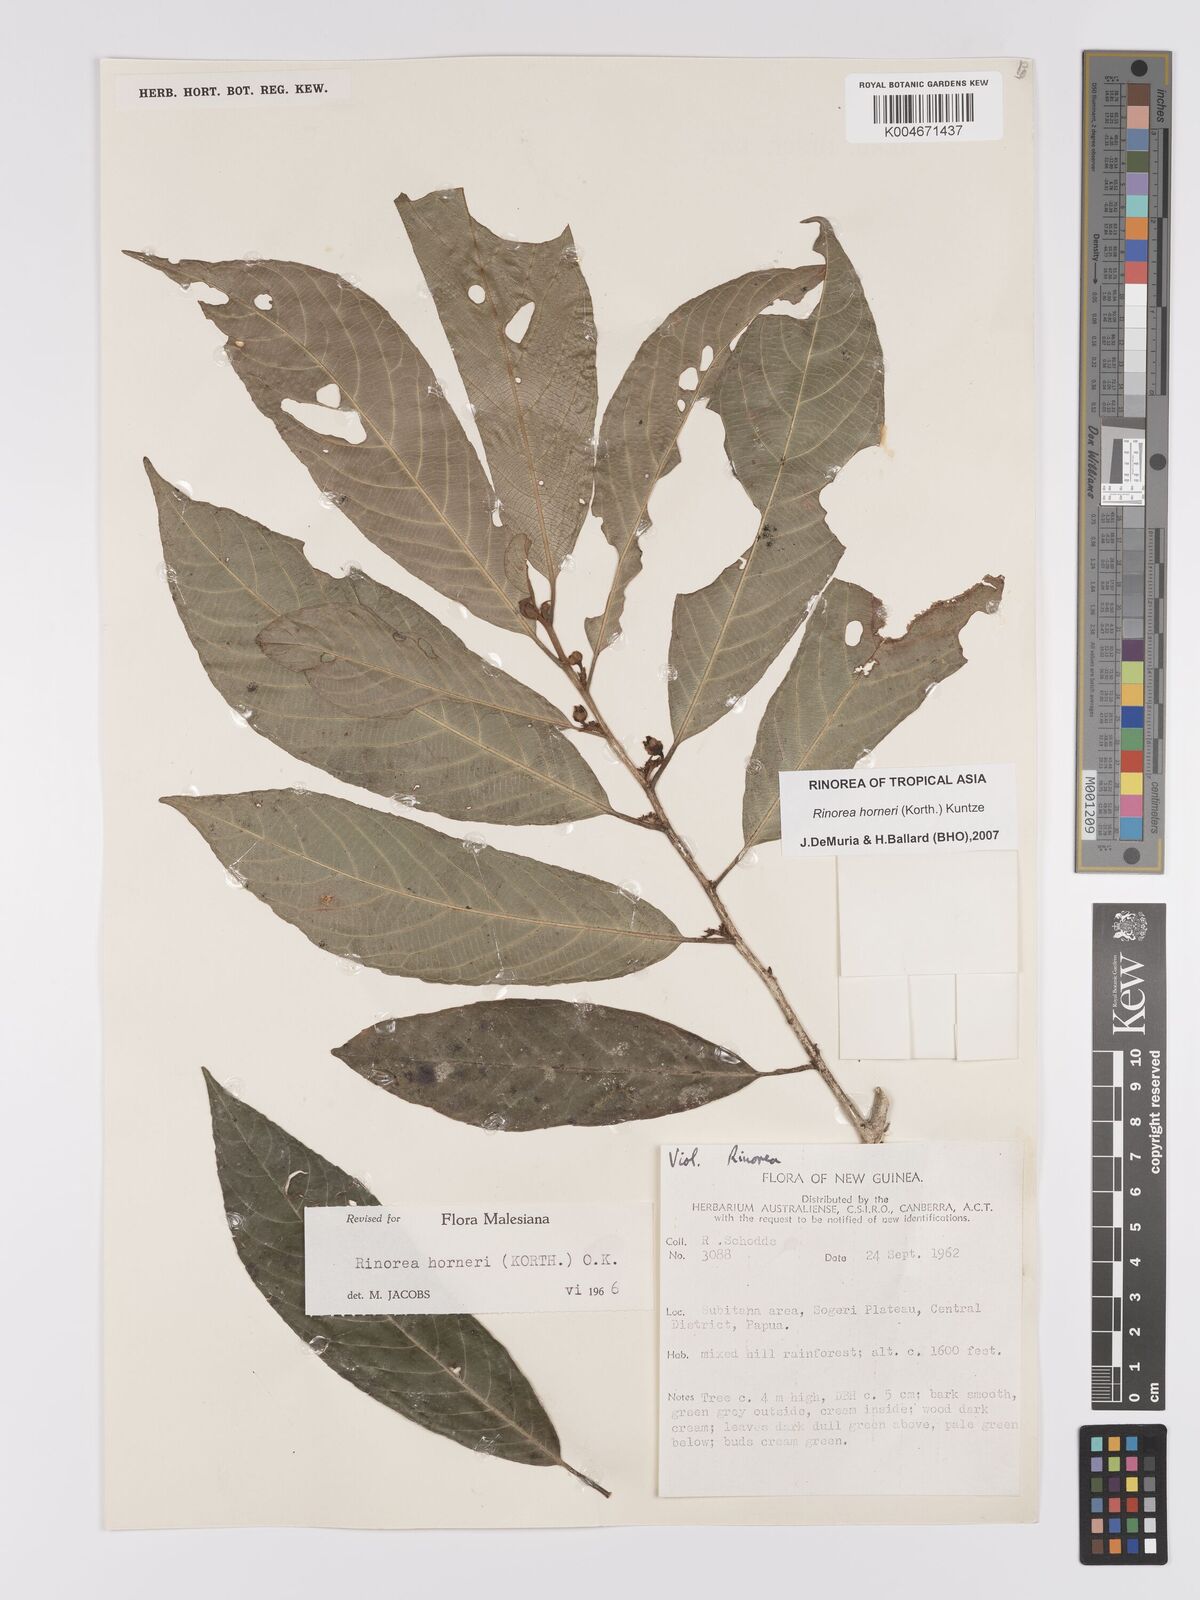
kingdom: Plantae
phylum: Tracheophyta
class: Magnoliopsida
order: Malpighiales
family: Violaceae
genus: Rinorea
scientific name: Rinorea horneri
